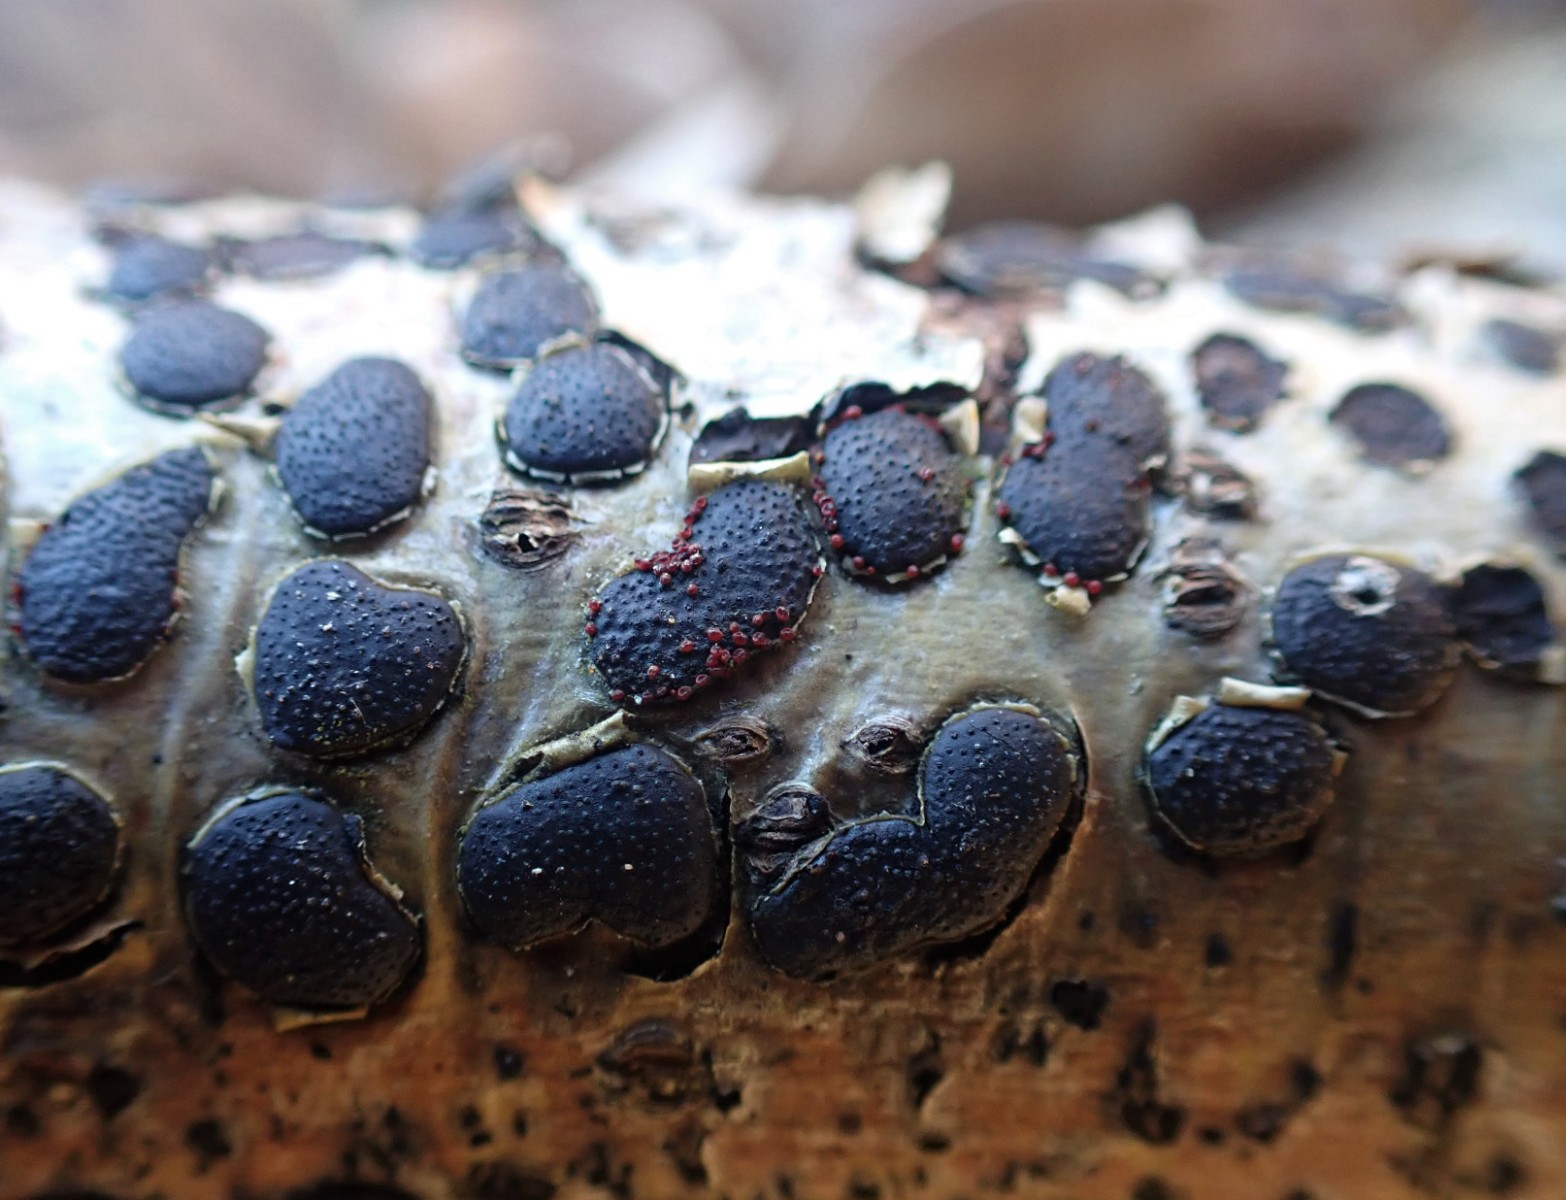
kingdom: Fungi
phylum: Ascomycota
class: Sordariomycetes
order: Hypocreales
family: Nectriaceae
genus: Dialonectria
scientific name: Dialonectria diatrypicola
